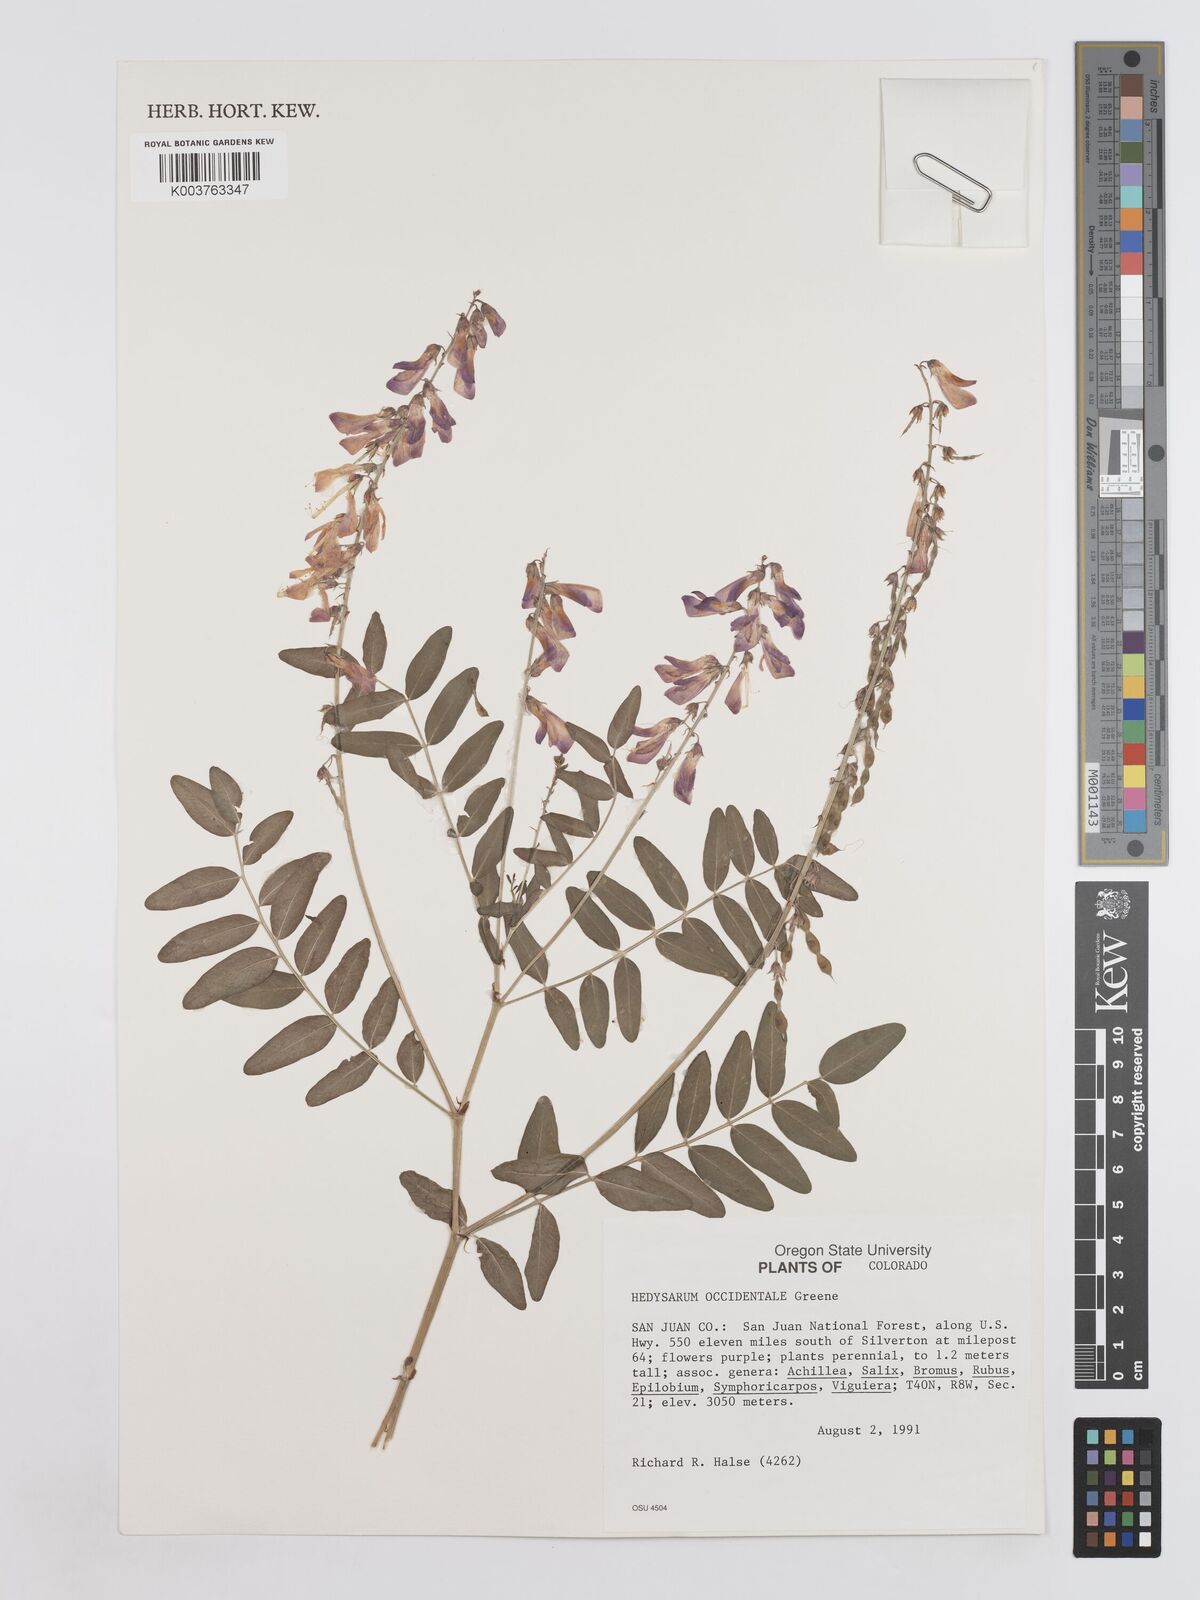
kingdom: Plantae
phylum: Tracheophyta
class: Magnoliopsida
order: Fabales
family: Fabaceae
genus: Hedysarum
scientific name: Hedysarum occidentale
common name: Western hedysarum
